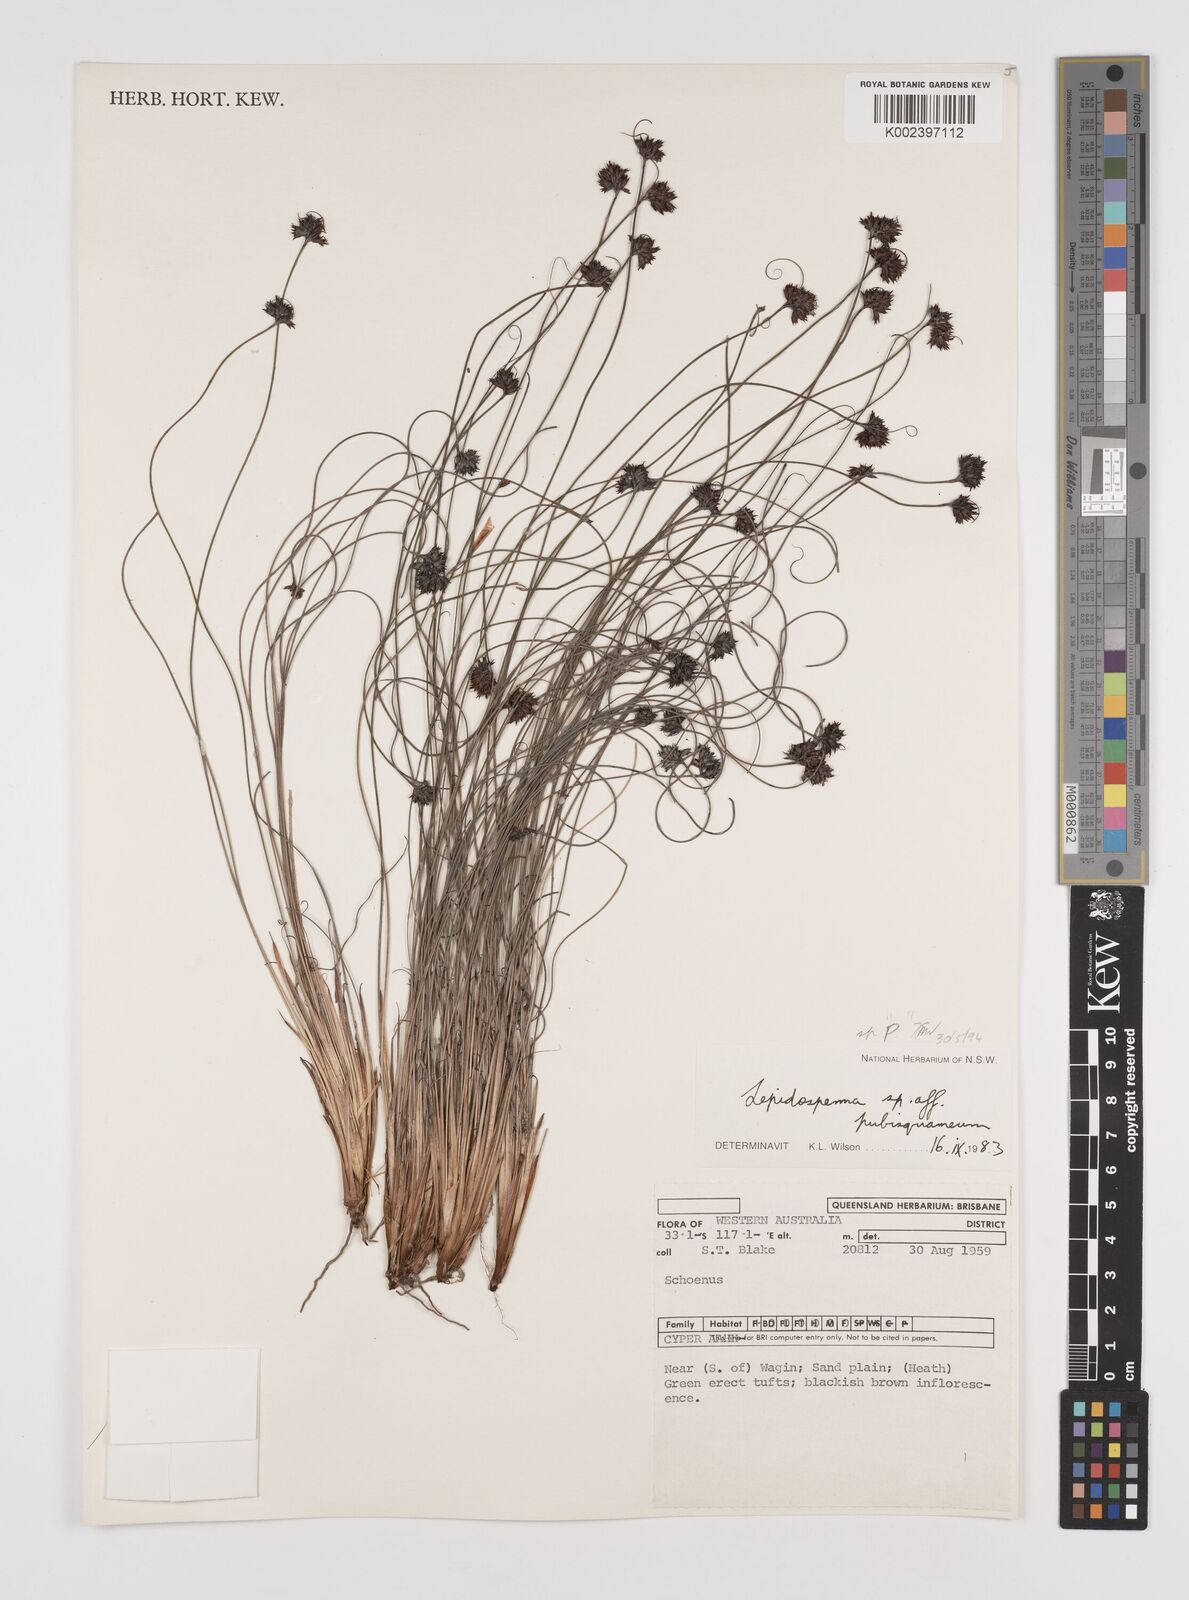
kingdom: Plantae
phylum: Tracheophyta
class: Liliopsida
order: Poales
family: Cyperaceae
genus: Lepidosperma
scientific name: Lepidosperma tenue
